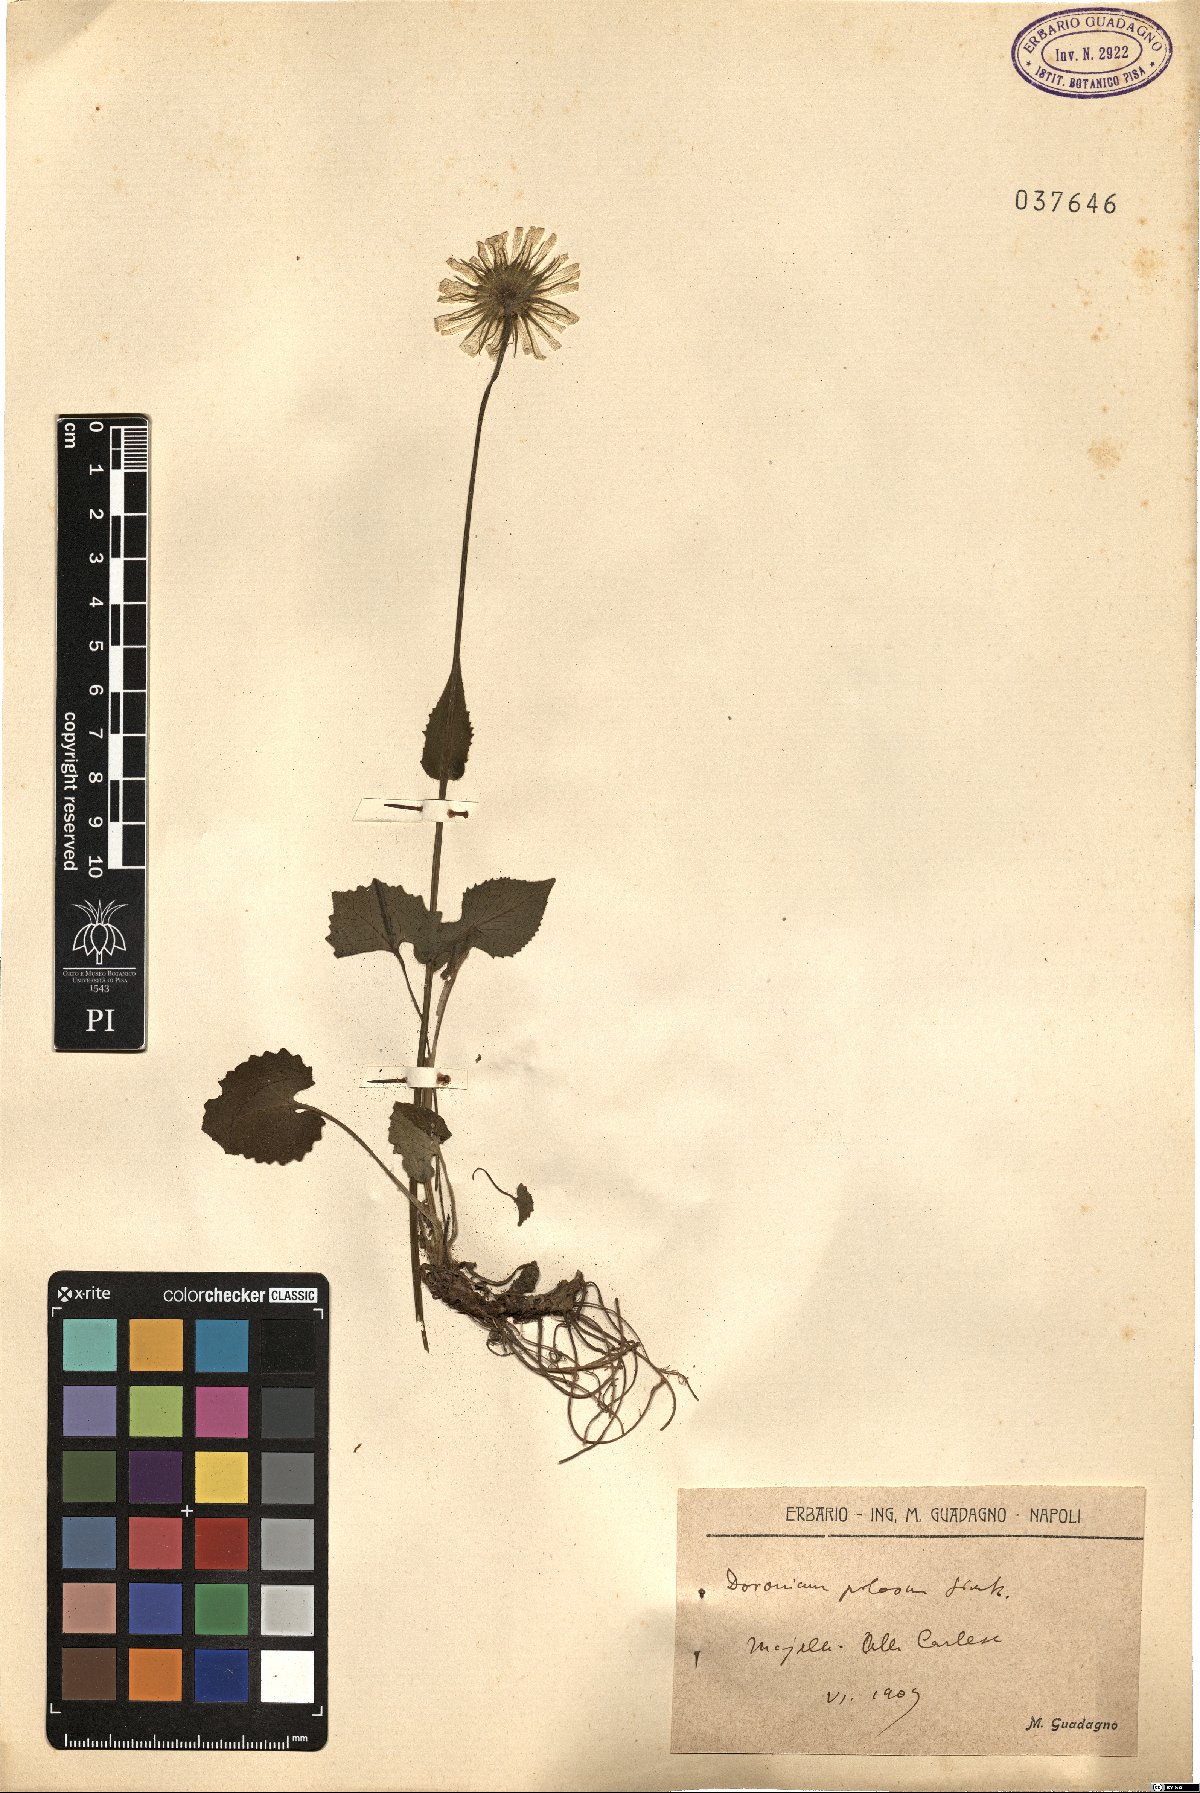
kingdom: Plantae
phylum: Tracheophyta
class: Magnoliopsida
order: Asterales
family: Asteraceae
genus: Doronicum
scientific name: Doronicum columnae
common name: Eastern leopard's-bane
